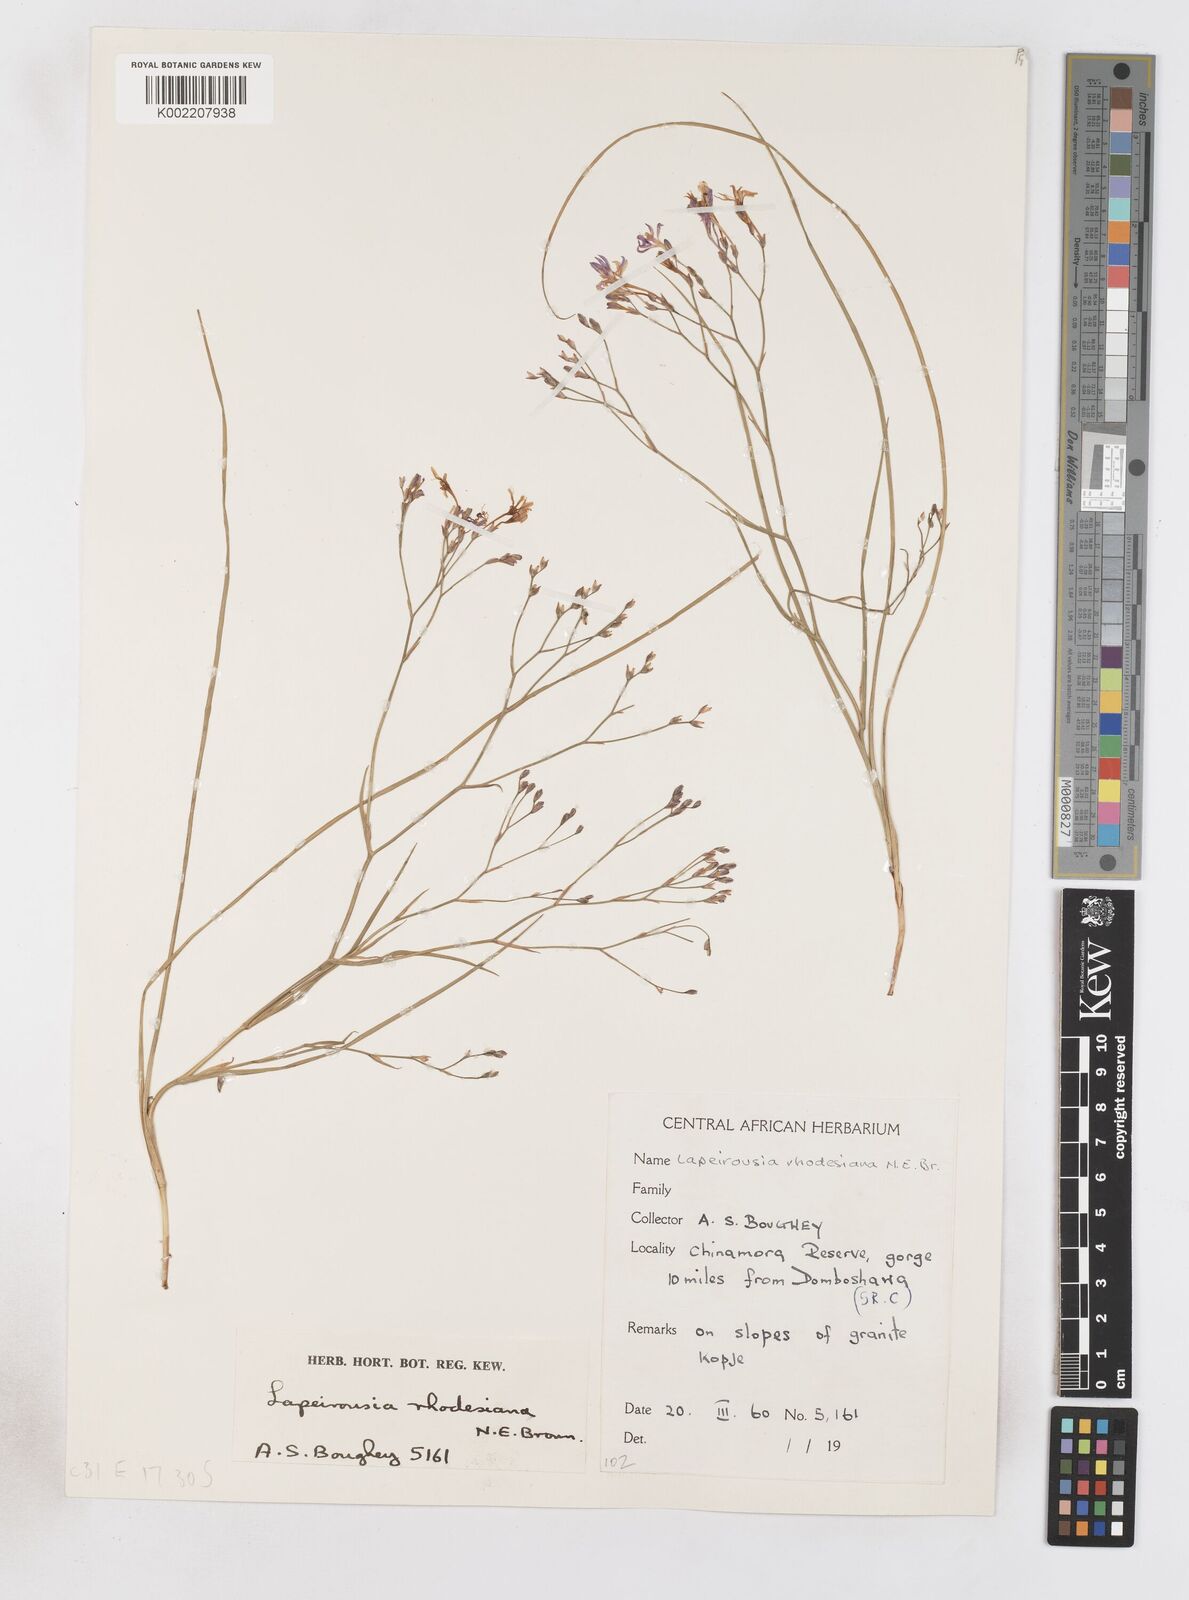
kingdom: Plantae
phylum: Tracheophyta
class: Liliopsida
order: Asparagales
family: Iridaceae
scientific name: Iridaceae
